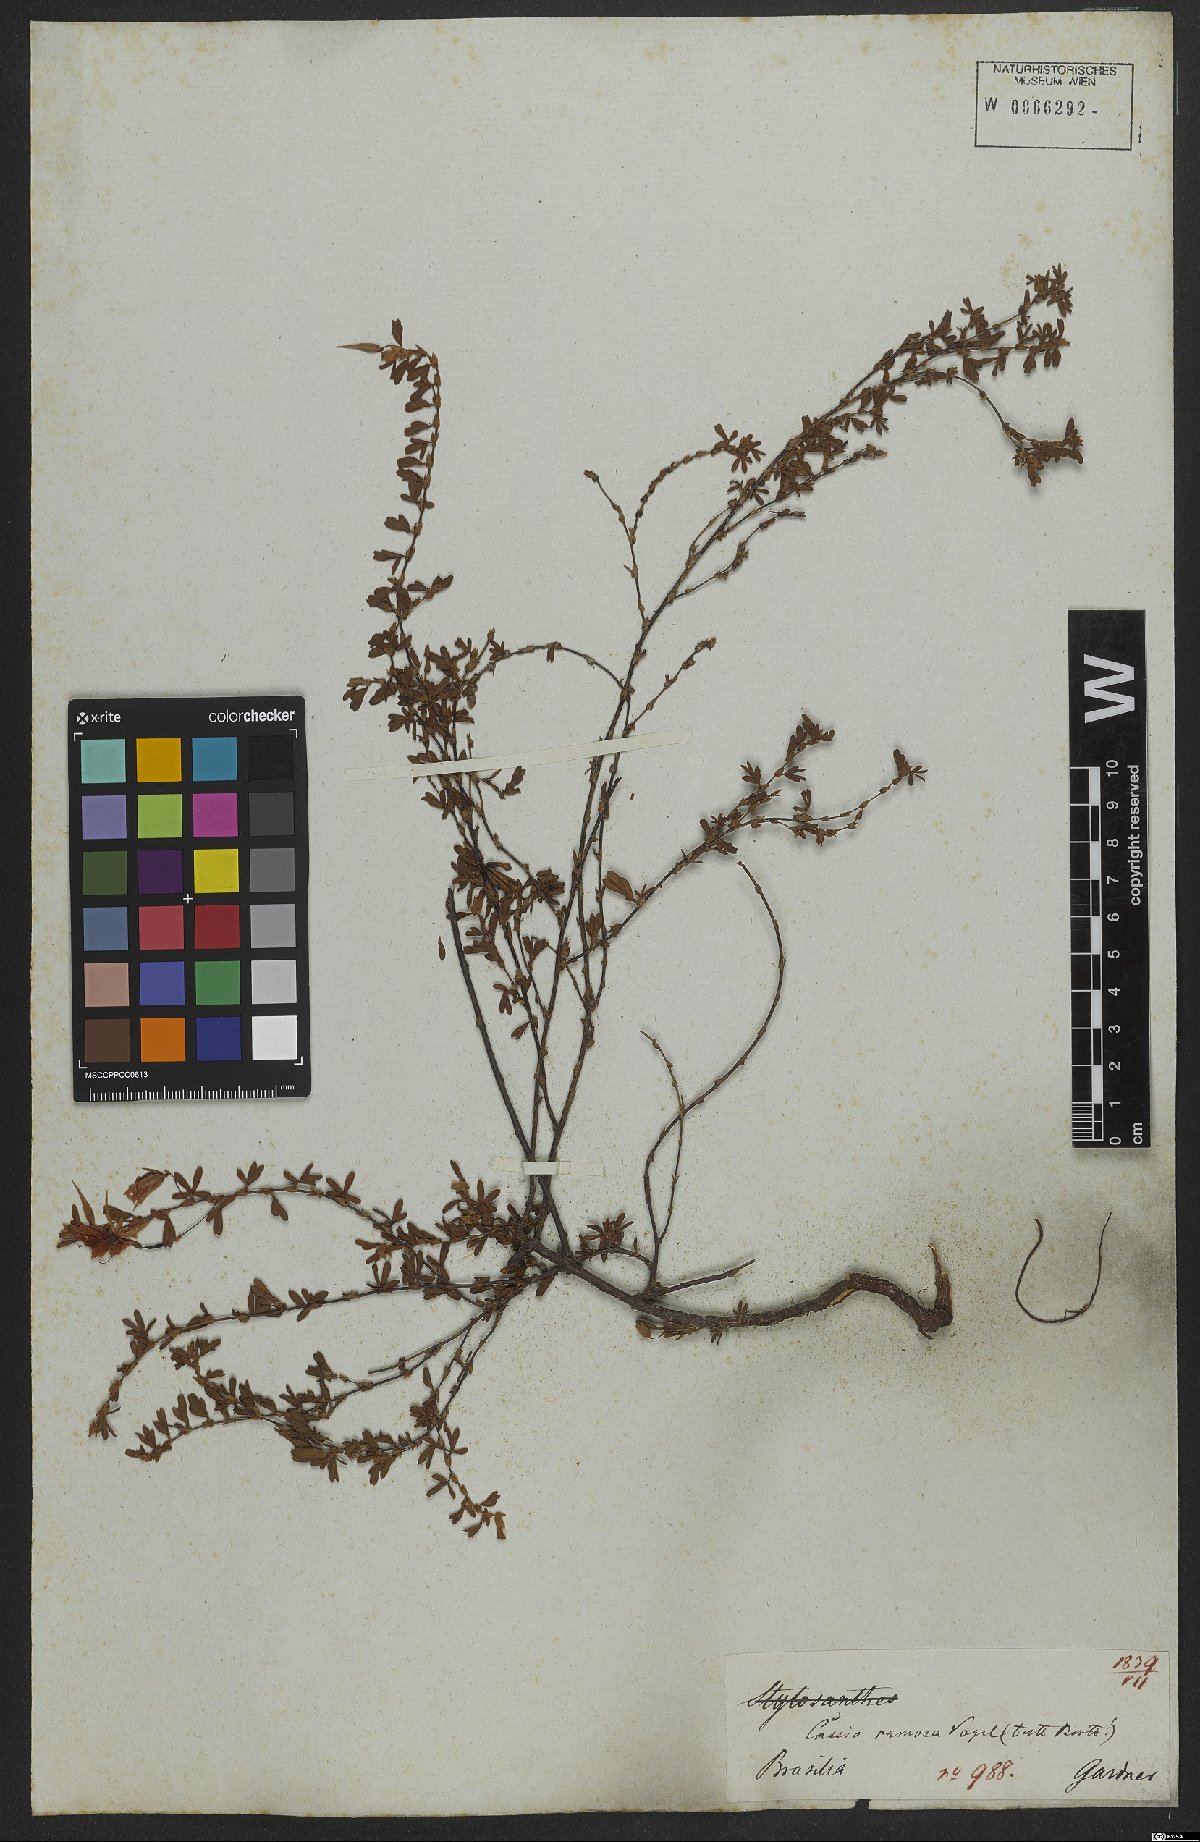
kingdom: Plantae
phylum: Tracheophyta
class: Magnoliopsida
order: Fabales
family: Fabaceae
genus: Senna
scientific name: Senna uniflora
